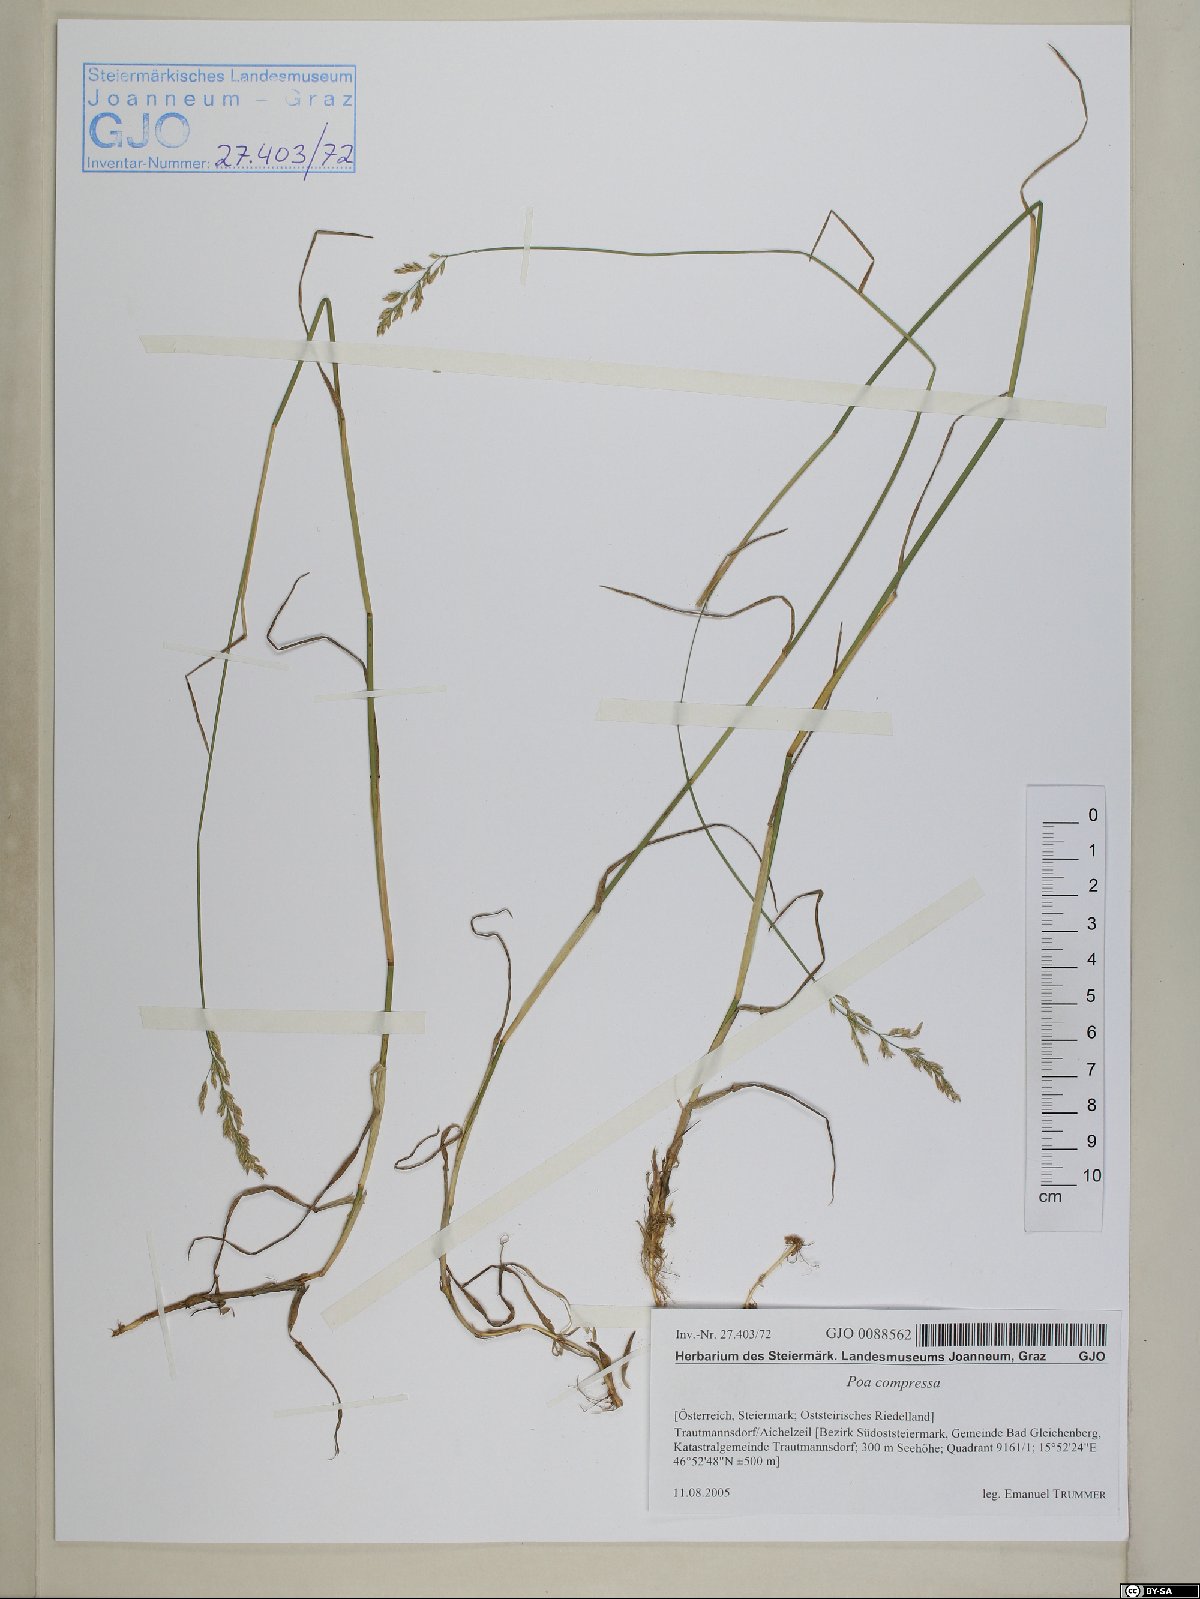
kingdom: Plantae
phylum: Tracheophyta
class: Liliopsida
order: Poales
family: Poaceae
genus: Poa
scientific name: Poa compressa
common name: Canada bluegrass
